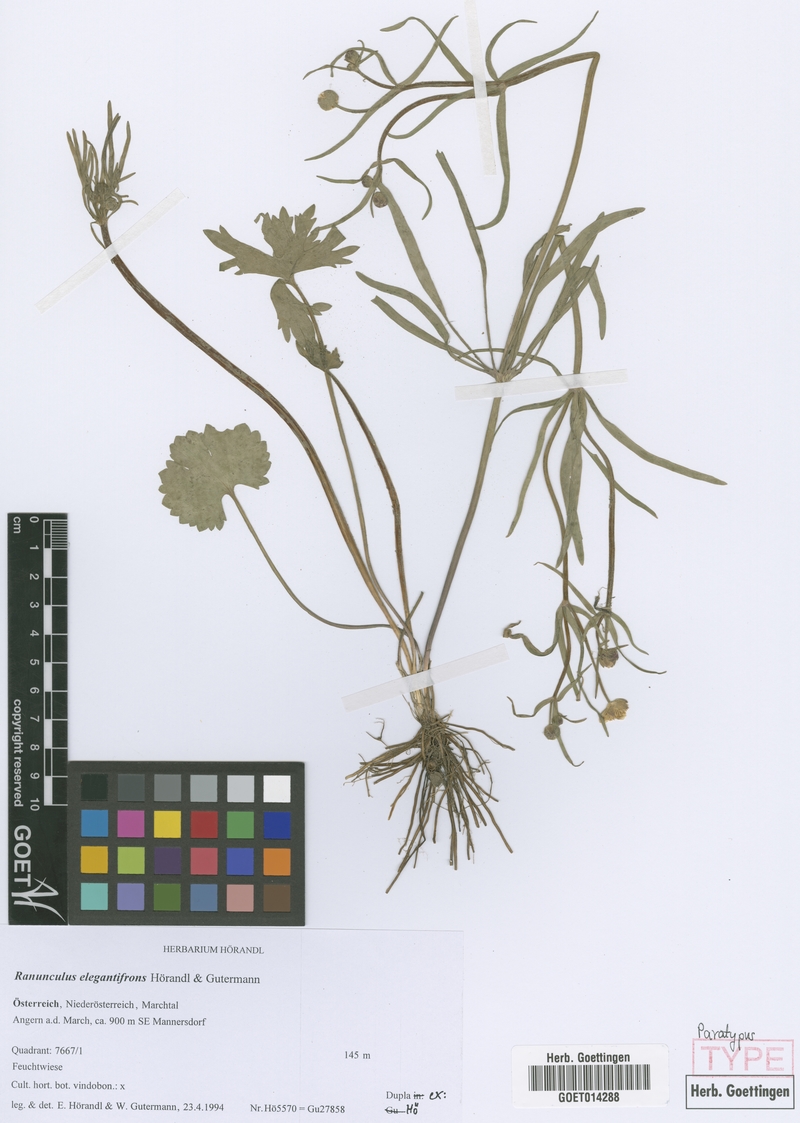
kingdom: Plantae
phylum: Tracheophyta
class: Magnoliopsida
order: Ranunculales
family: Ranunculaceae
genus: Ranunculus
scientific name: Ranunculus elegantifrons
